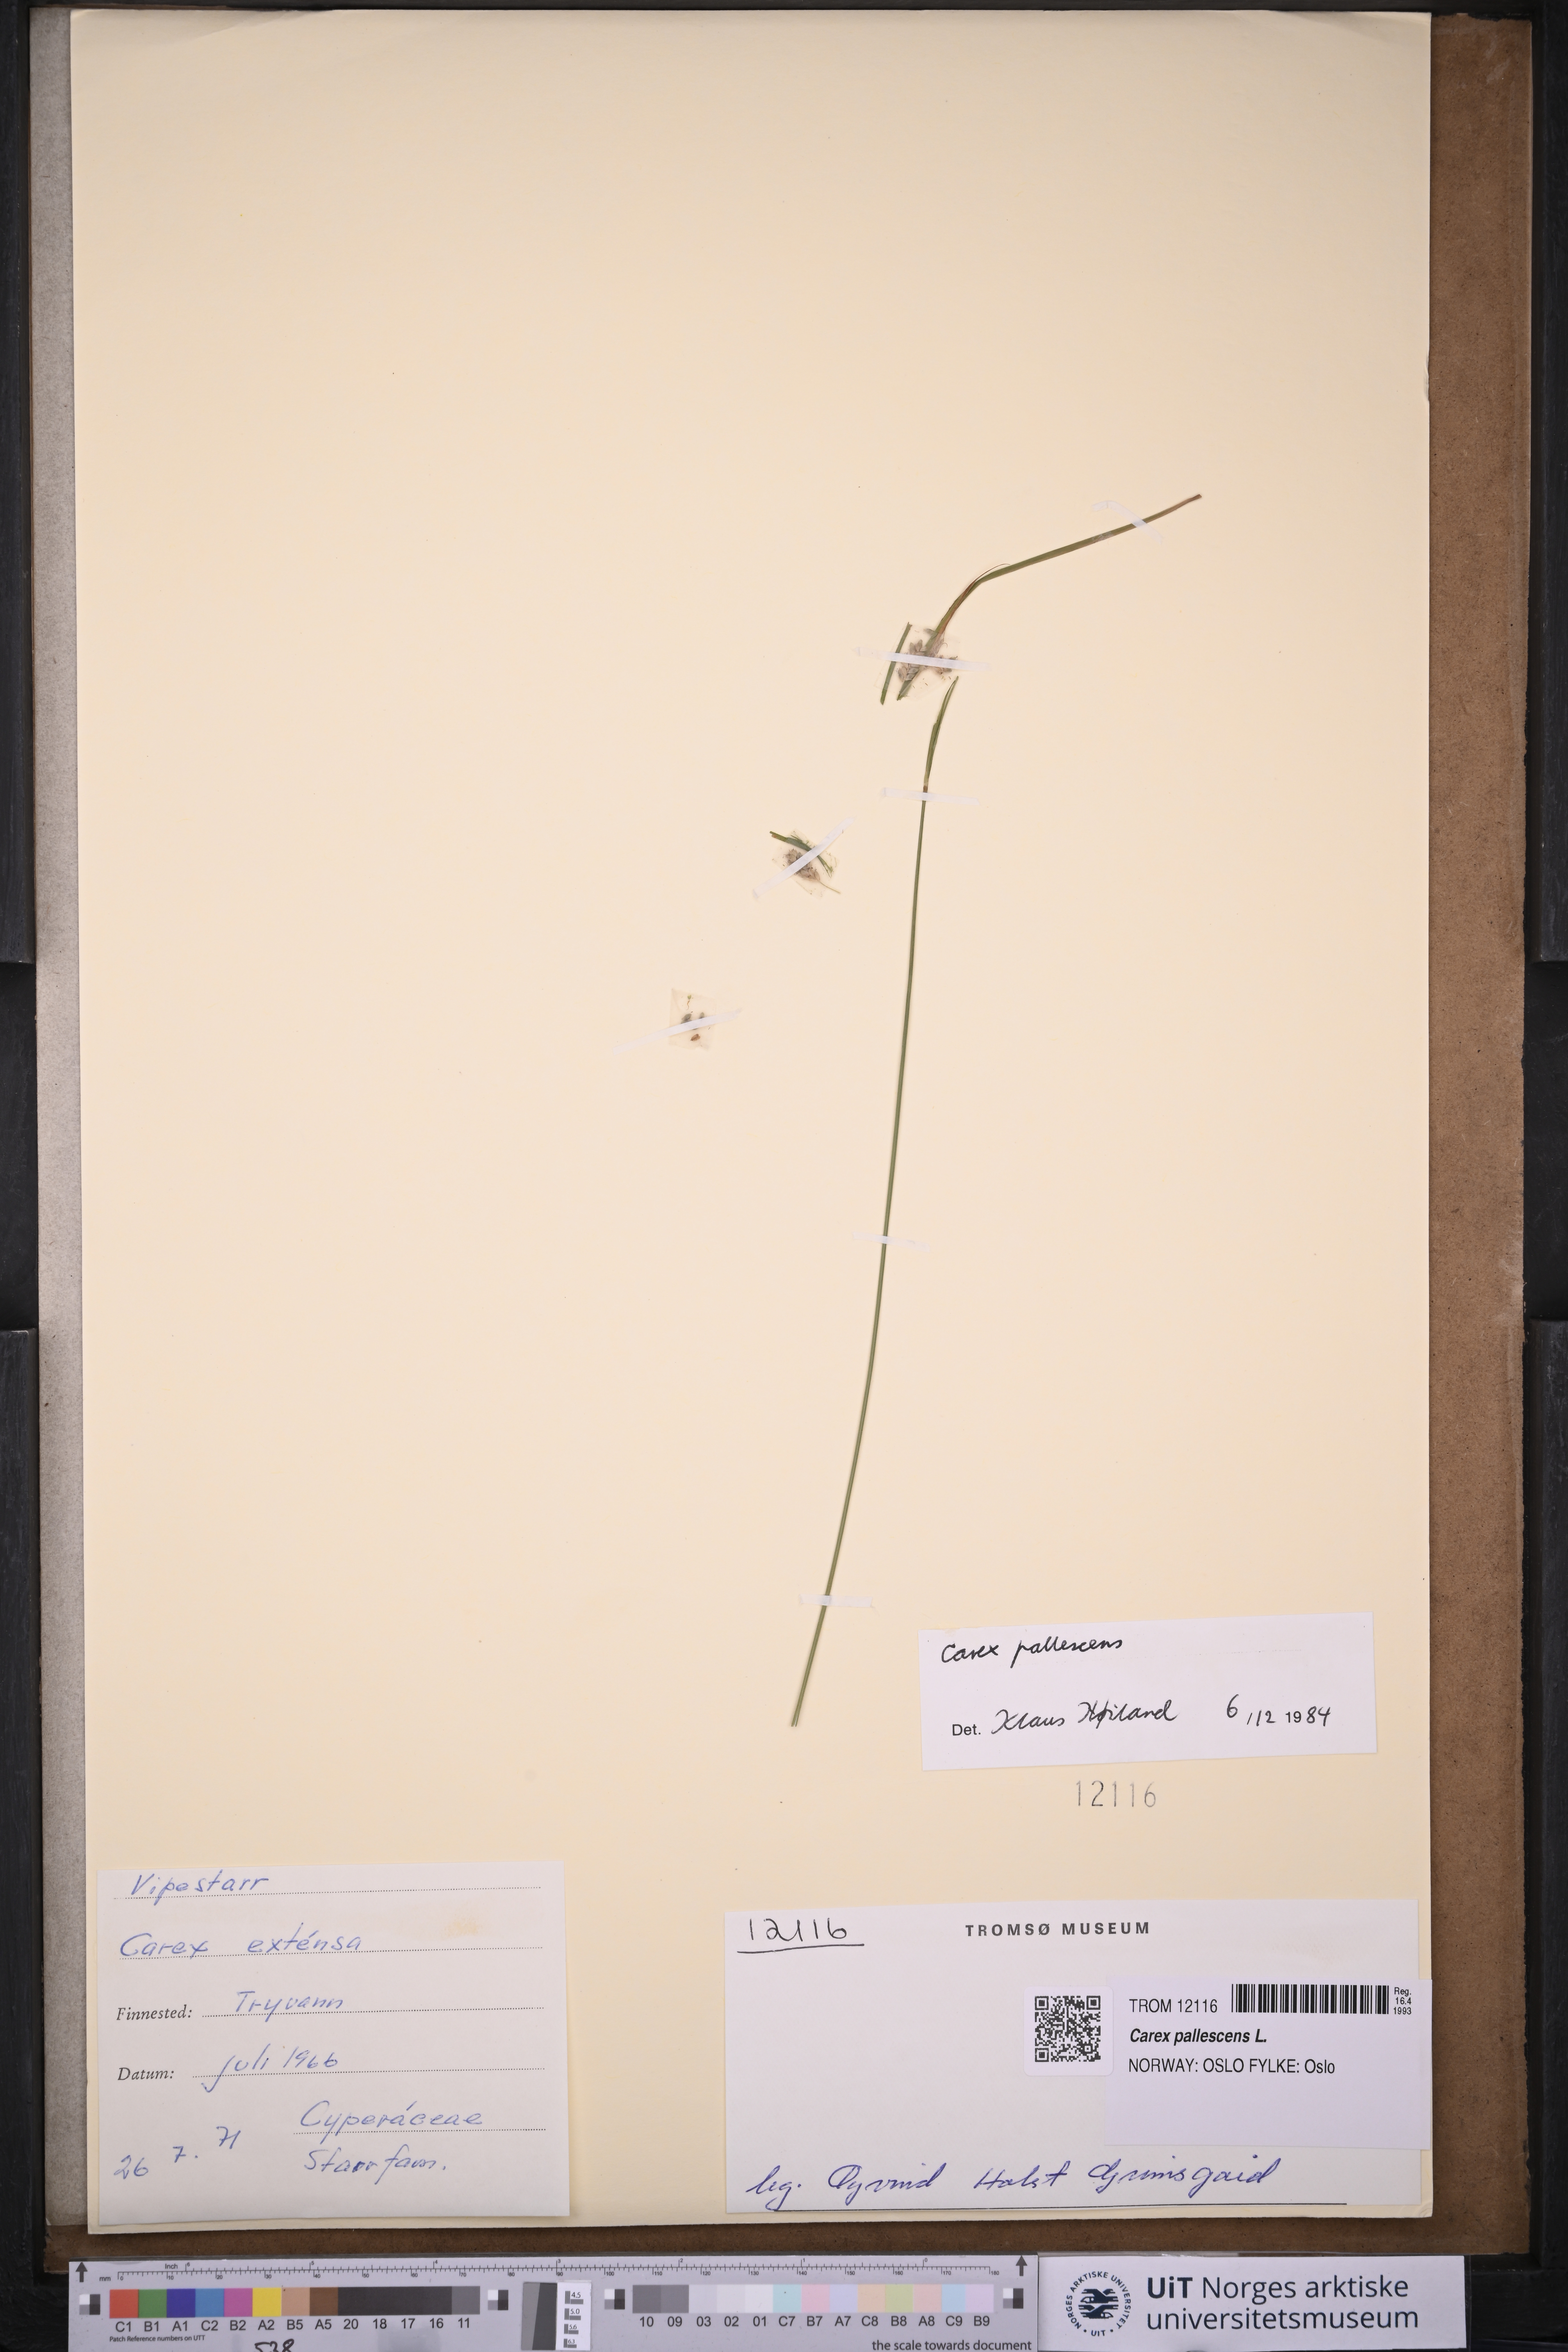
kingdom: Plantae
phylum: Tracheophyta
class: Liliopsida
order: Poales
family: Cyperaceae
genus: Carex
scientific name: Carex pallescens
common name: Pale sedge
